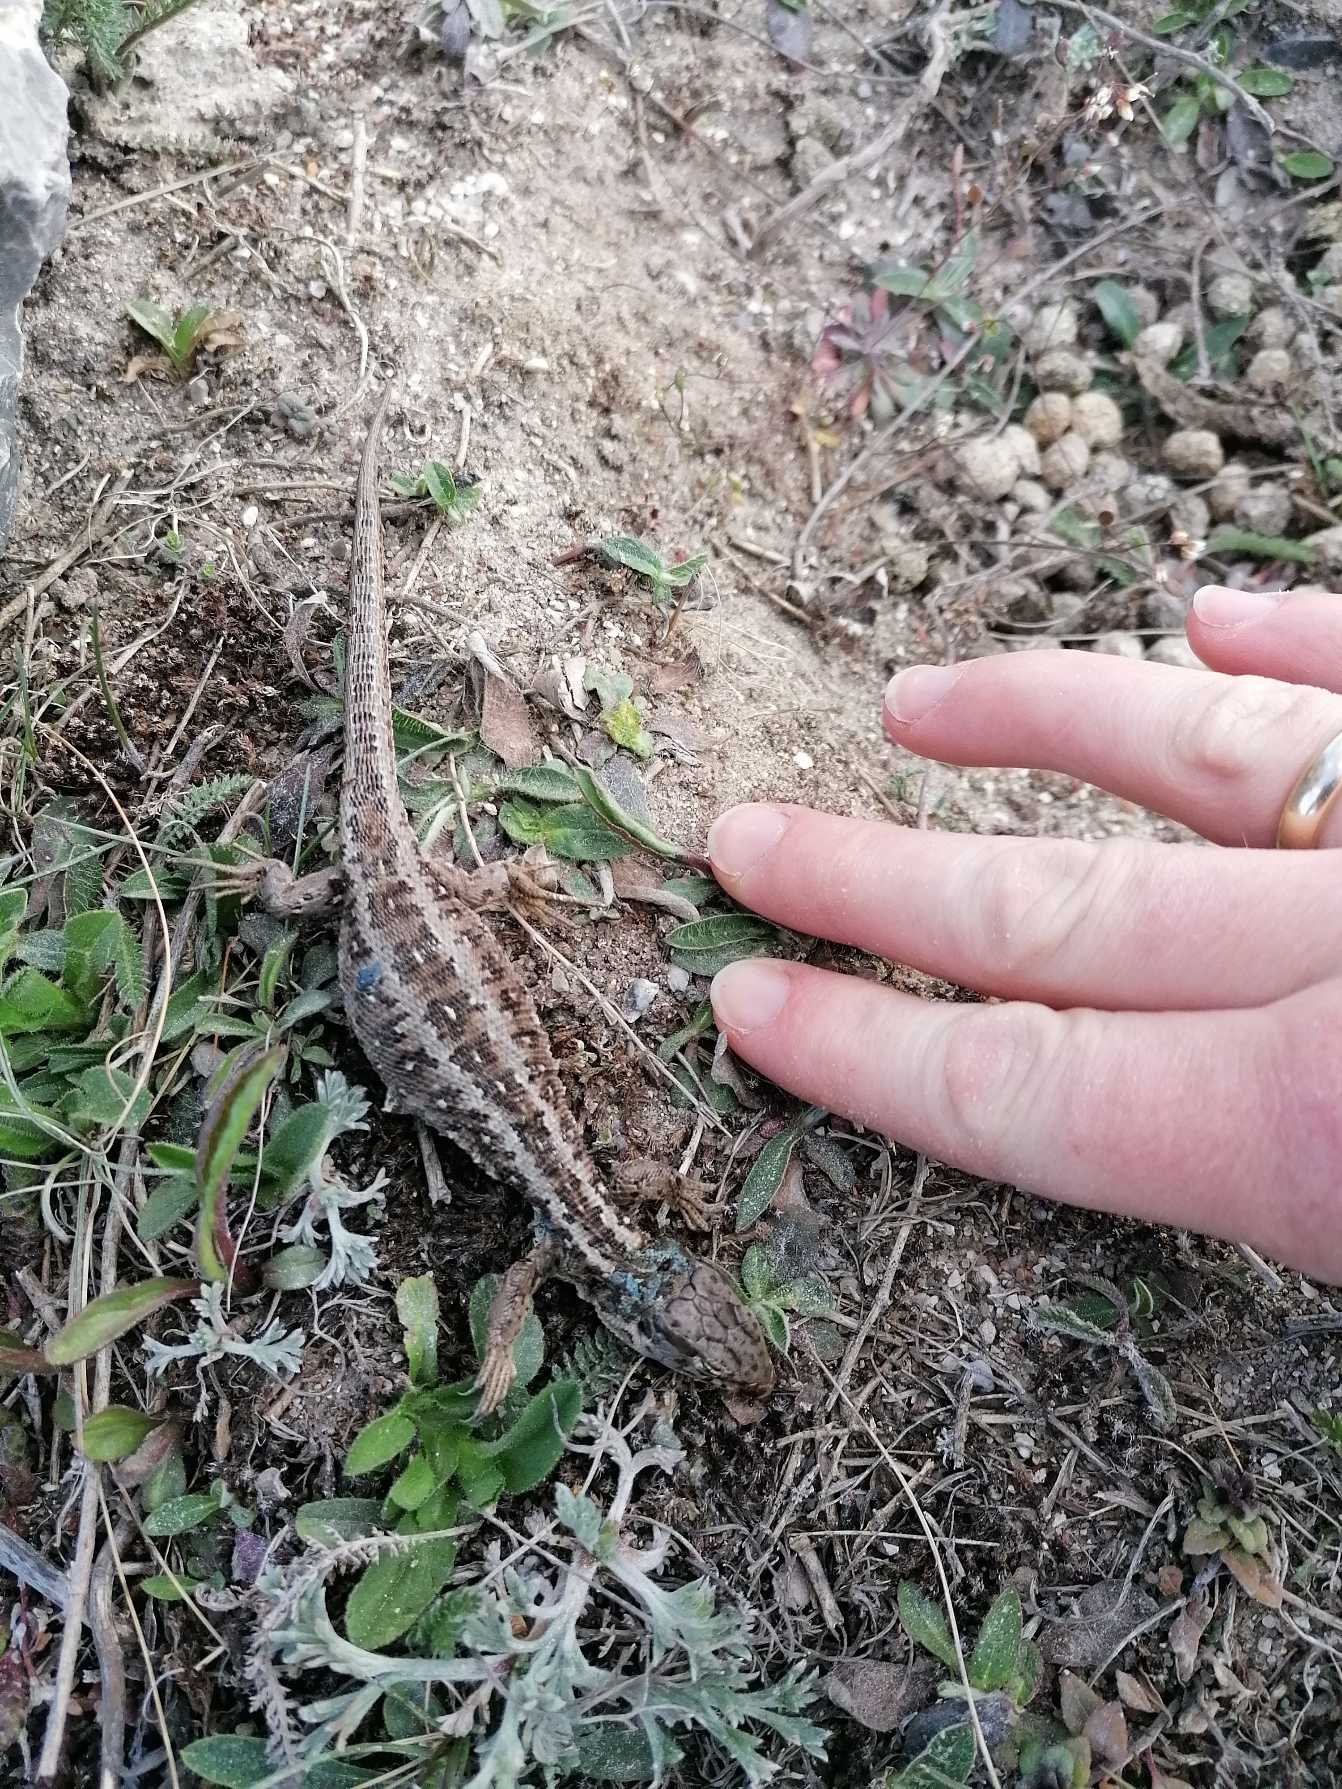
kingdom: Animalia
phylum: Chordata
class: Squamata
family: Lacertidae
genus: Lacerta
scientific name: Lacerta agilis
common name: Markfirben
